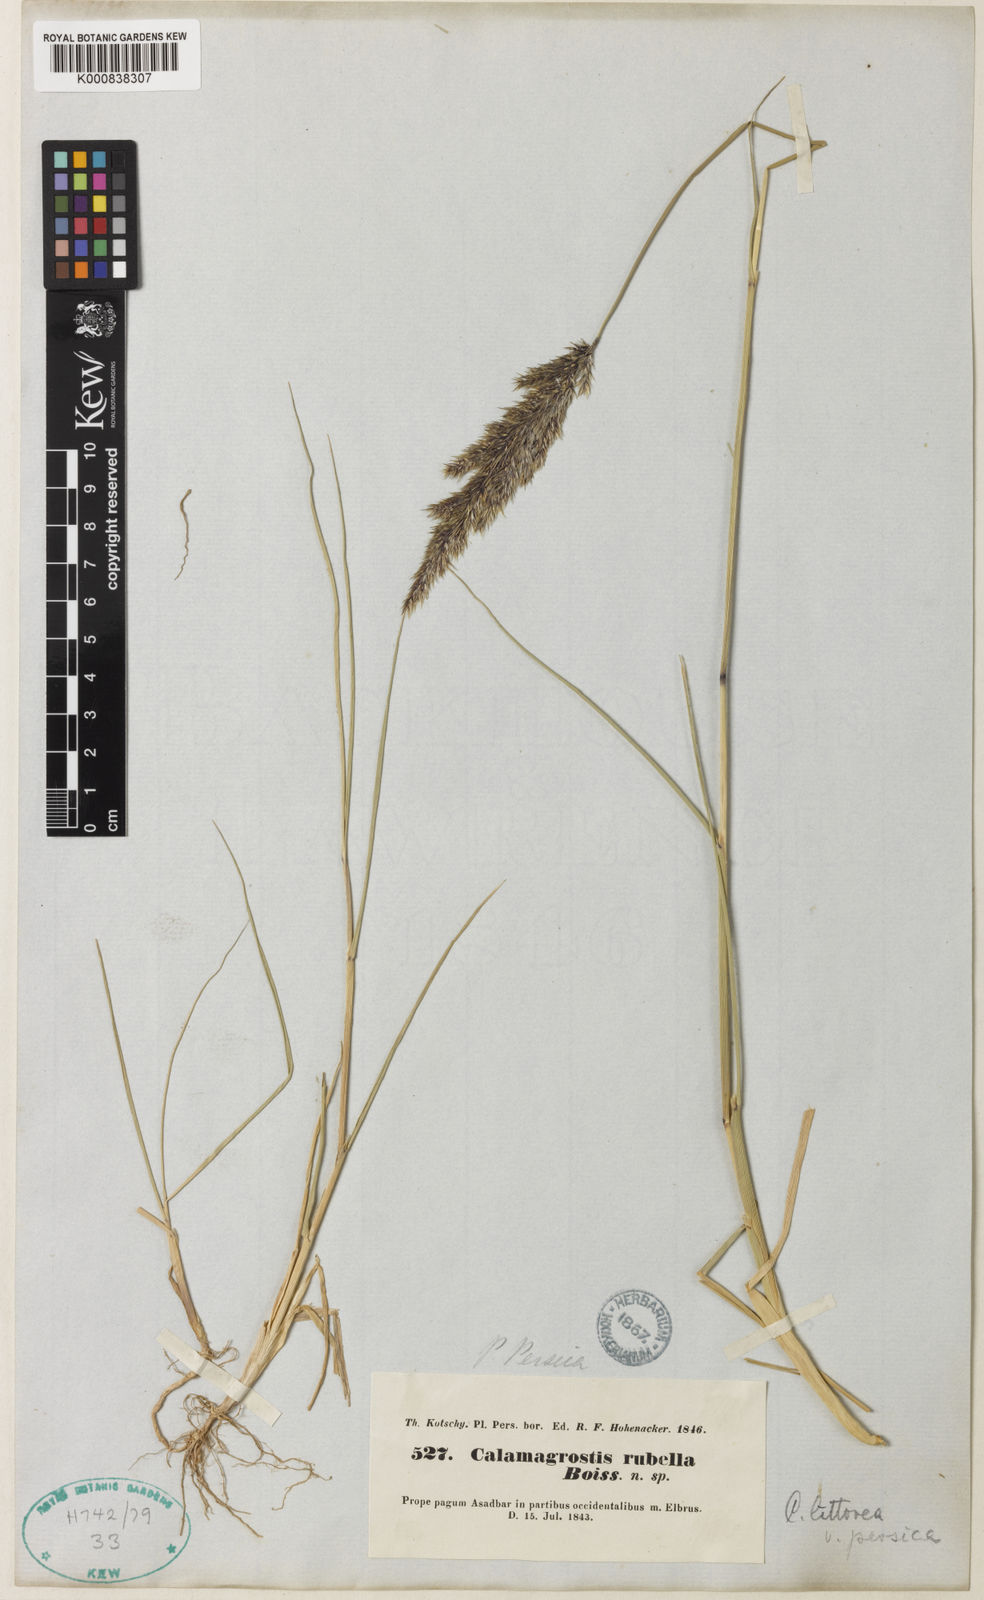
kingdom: Plantae
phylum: Tracheophyta
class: Liliopsida
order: Poales
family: Poaceae
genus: Calamagrostis
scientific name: Calamagrostis pseudophragmites
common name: Coastal small-reed
